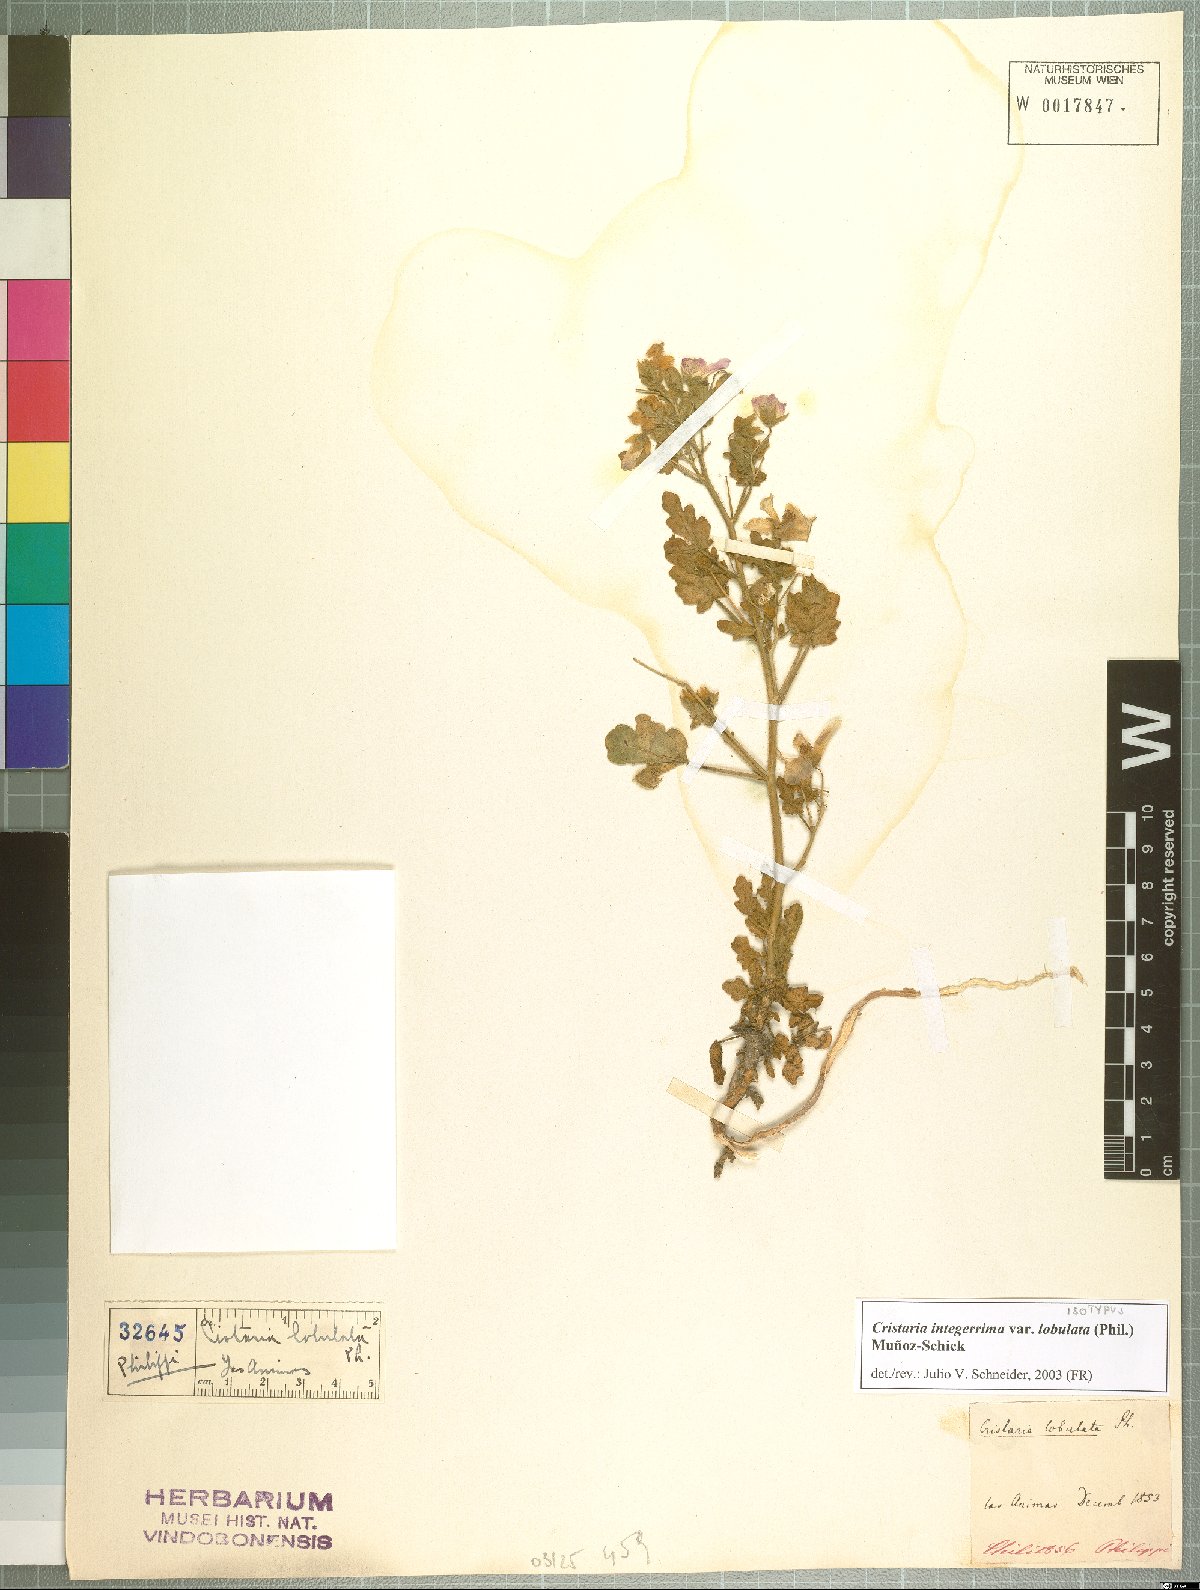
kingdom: Plantae
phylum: Tracheophyta
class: Magnoliopsida
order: Malvales
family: Malvaceae
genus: Cristaria
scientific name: Cristaria integerrima
